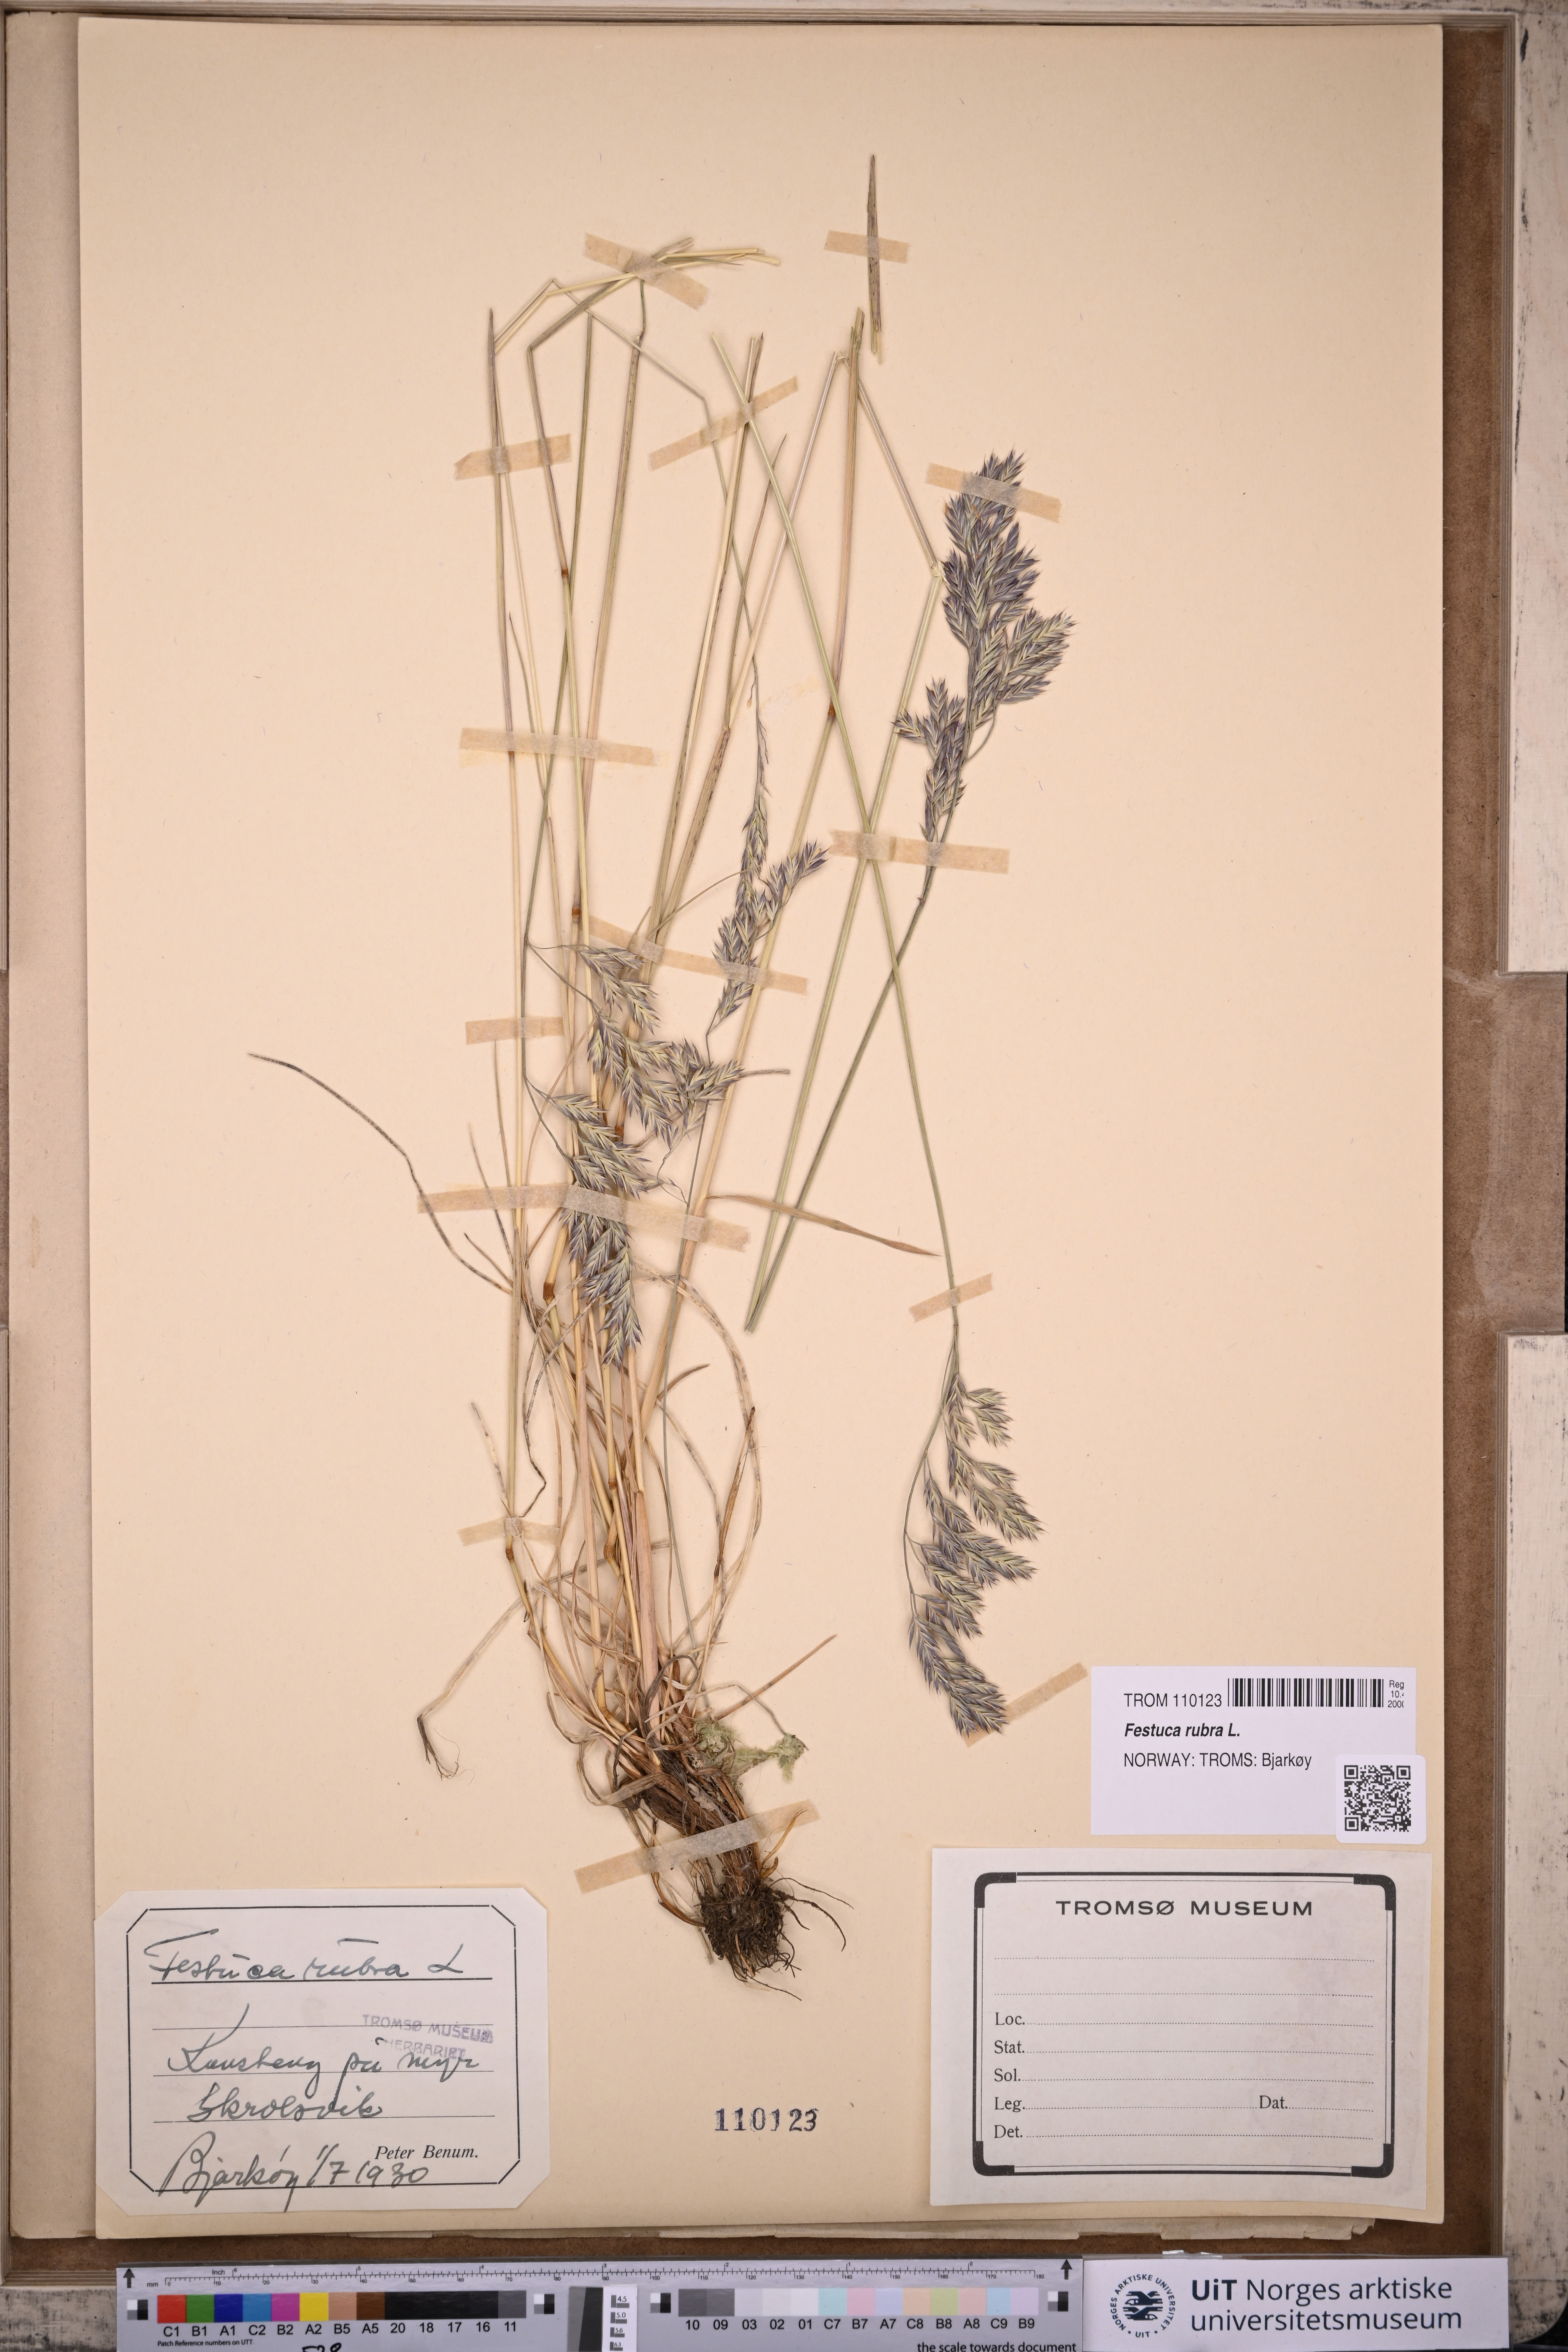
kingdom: Plantae
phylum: Tracheophyta
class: Liliopsida
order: Poales
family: Poaceae
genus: Festuca
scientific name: Festuca rubra
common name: Red fescue
